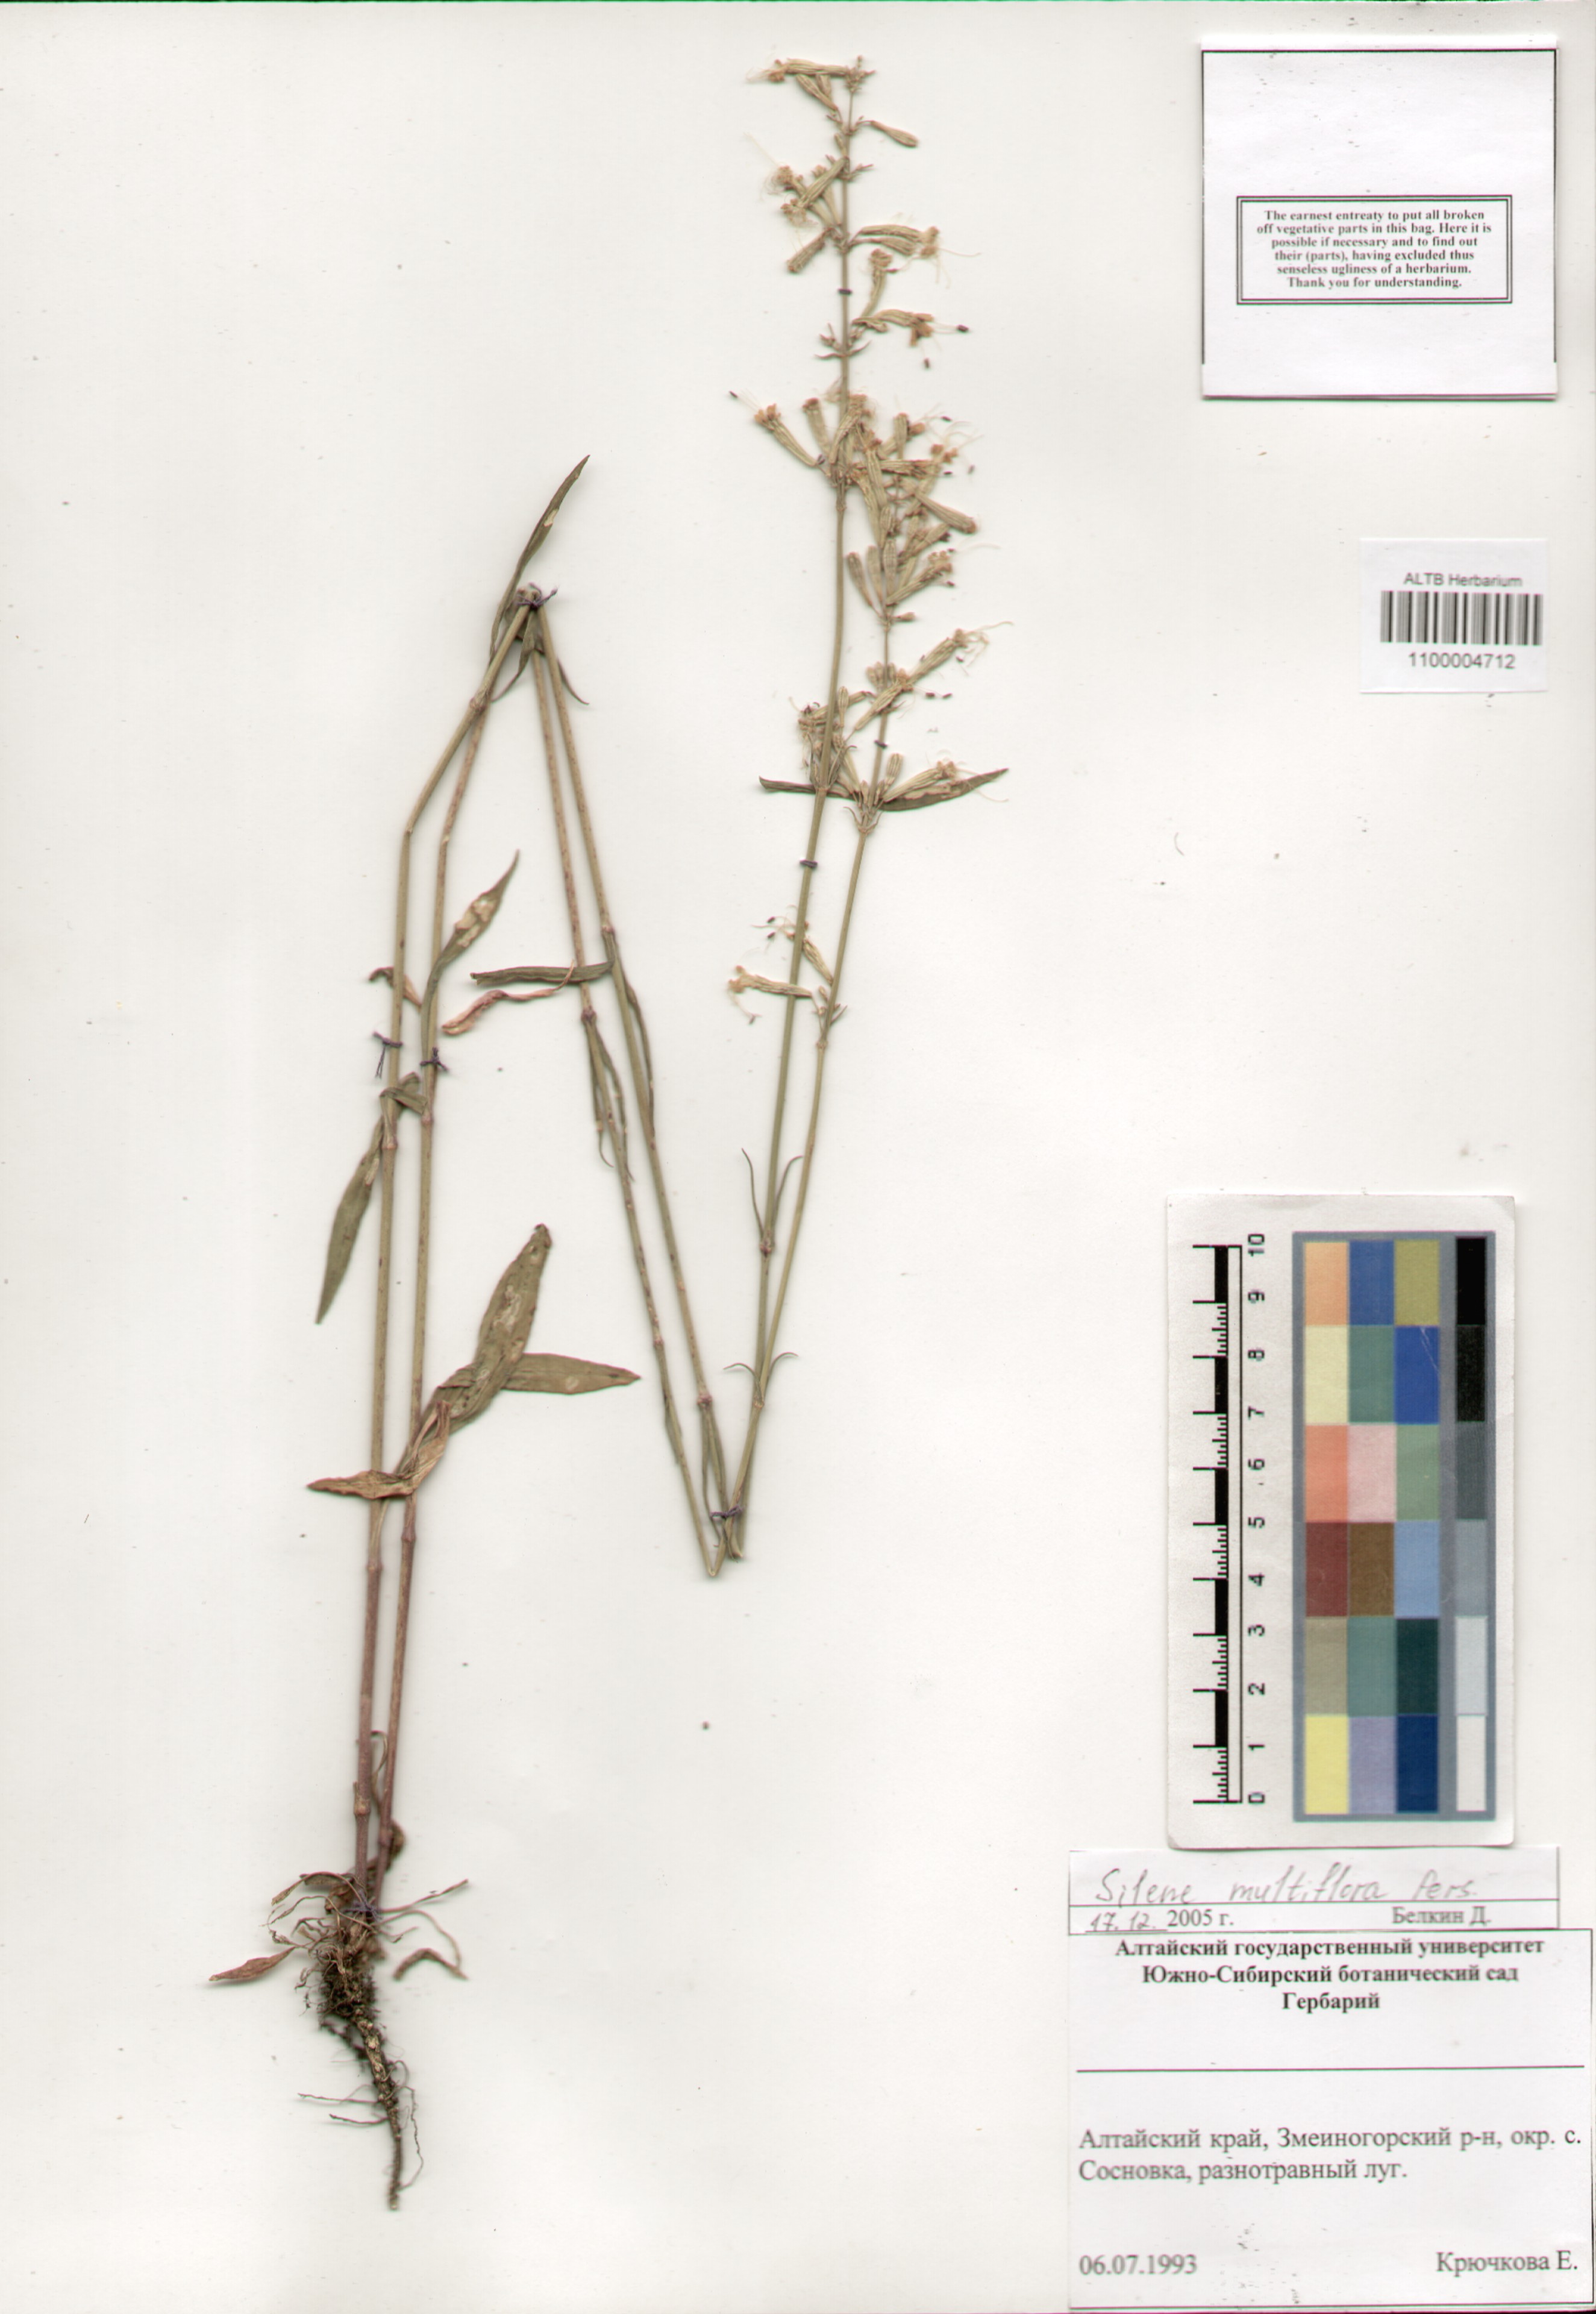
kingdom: Plantae
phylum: Tracheophyta
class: Magnoliopsida
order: Caryophyllales
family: Caryophyllaceae
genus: Silene
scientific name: Silene multiflora
